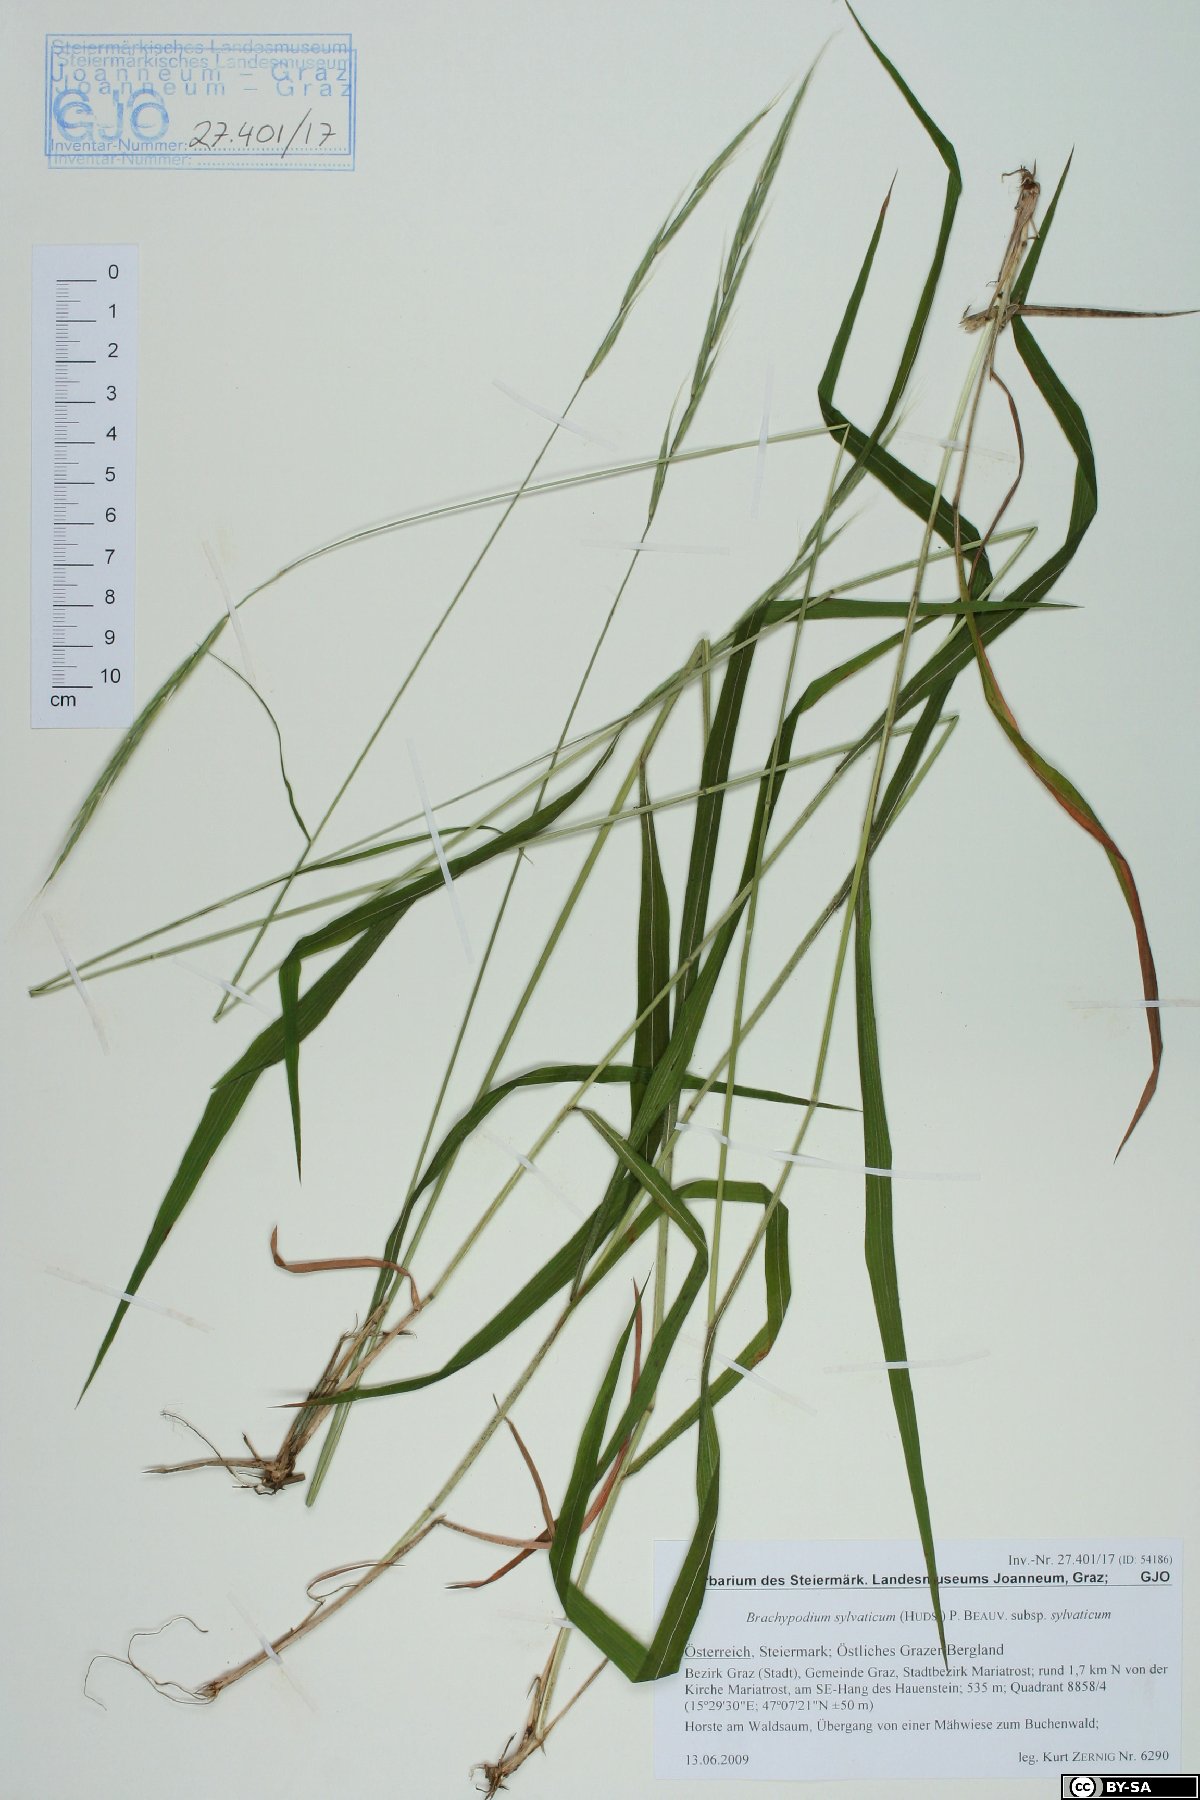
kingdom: Plantae
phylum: Tracheophyta
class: Liliopsida
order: Poales
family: Poaceae
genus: Brachypodium
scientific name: Brachypodium sylvaticum
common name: False-brome
